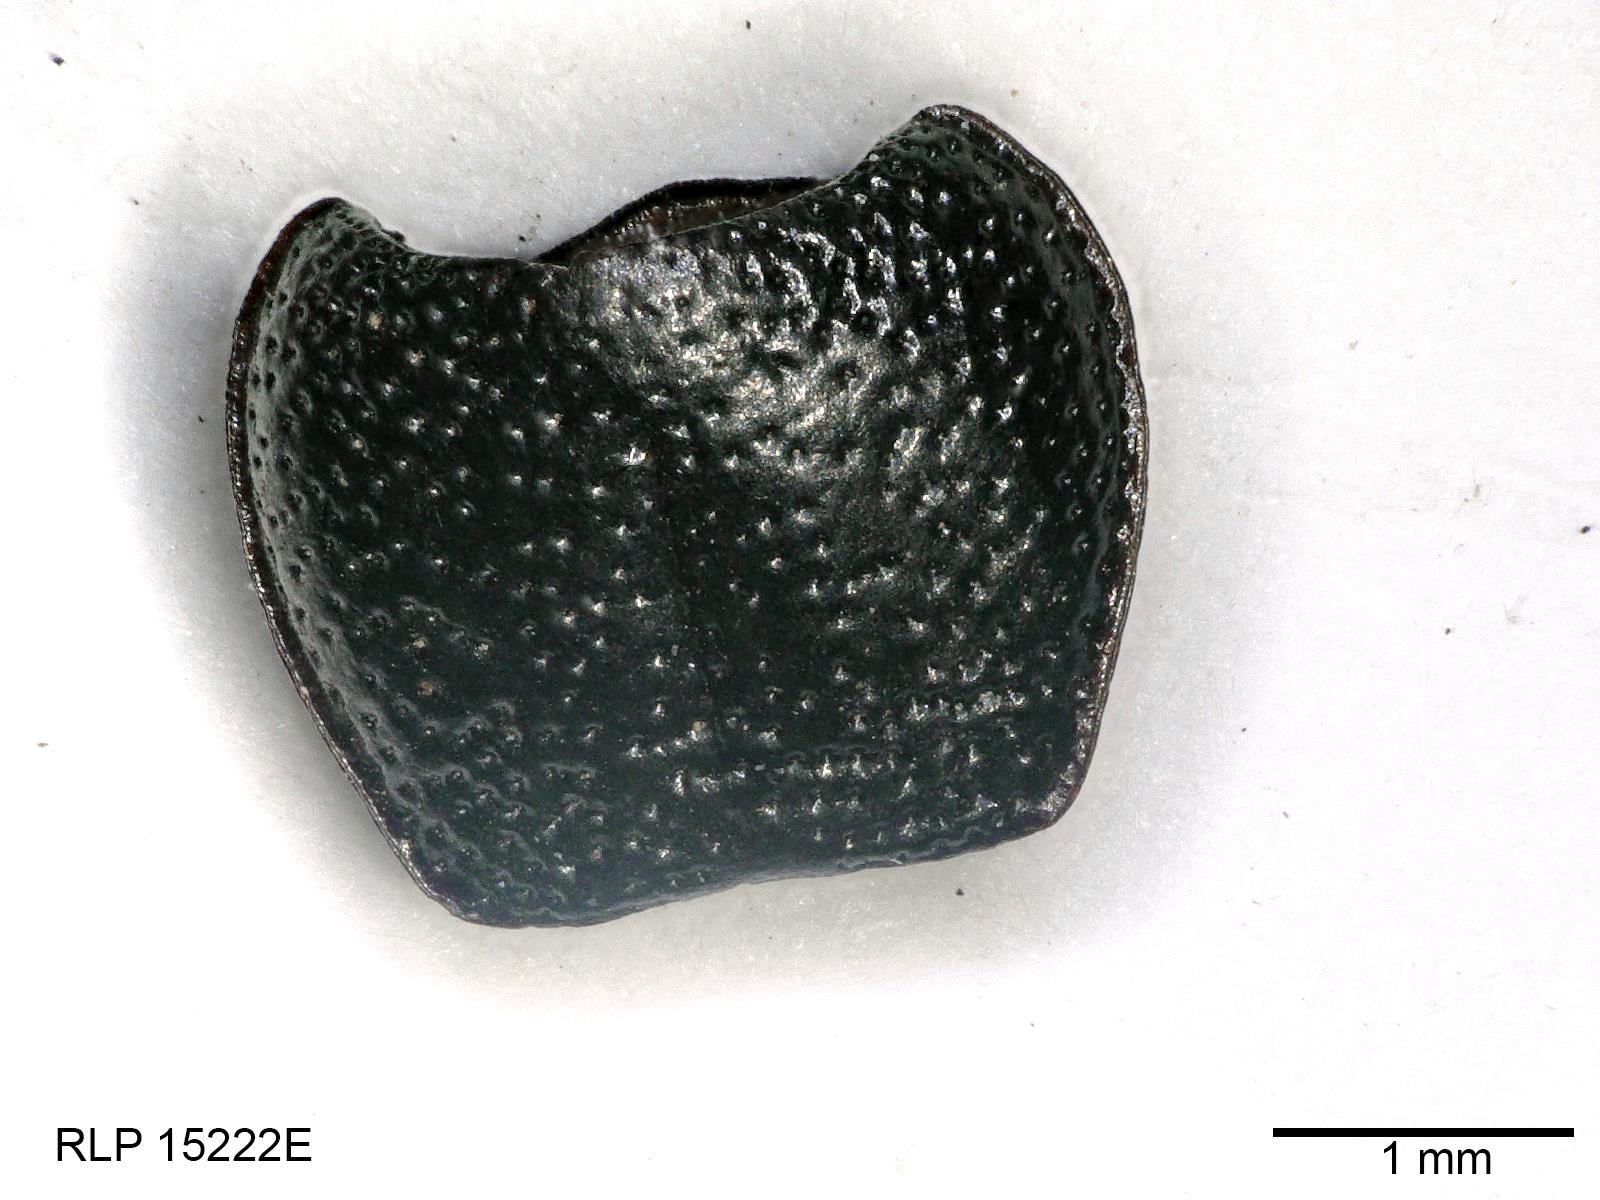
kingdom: Animalia
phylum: Arthropoda
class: Insecta
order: Coleoptera
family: Carabidae
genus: Dicheirus
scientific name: Dicheirus dilatatus
